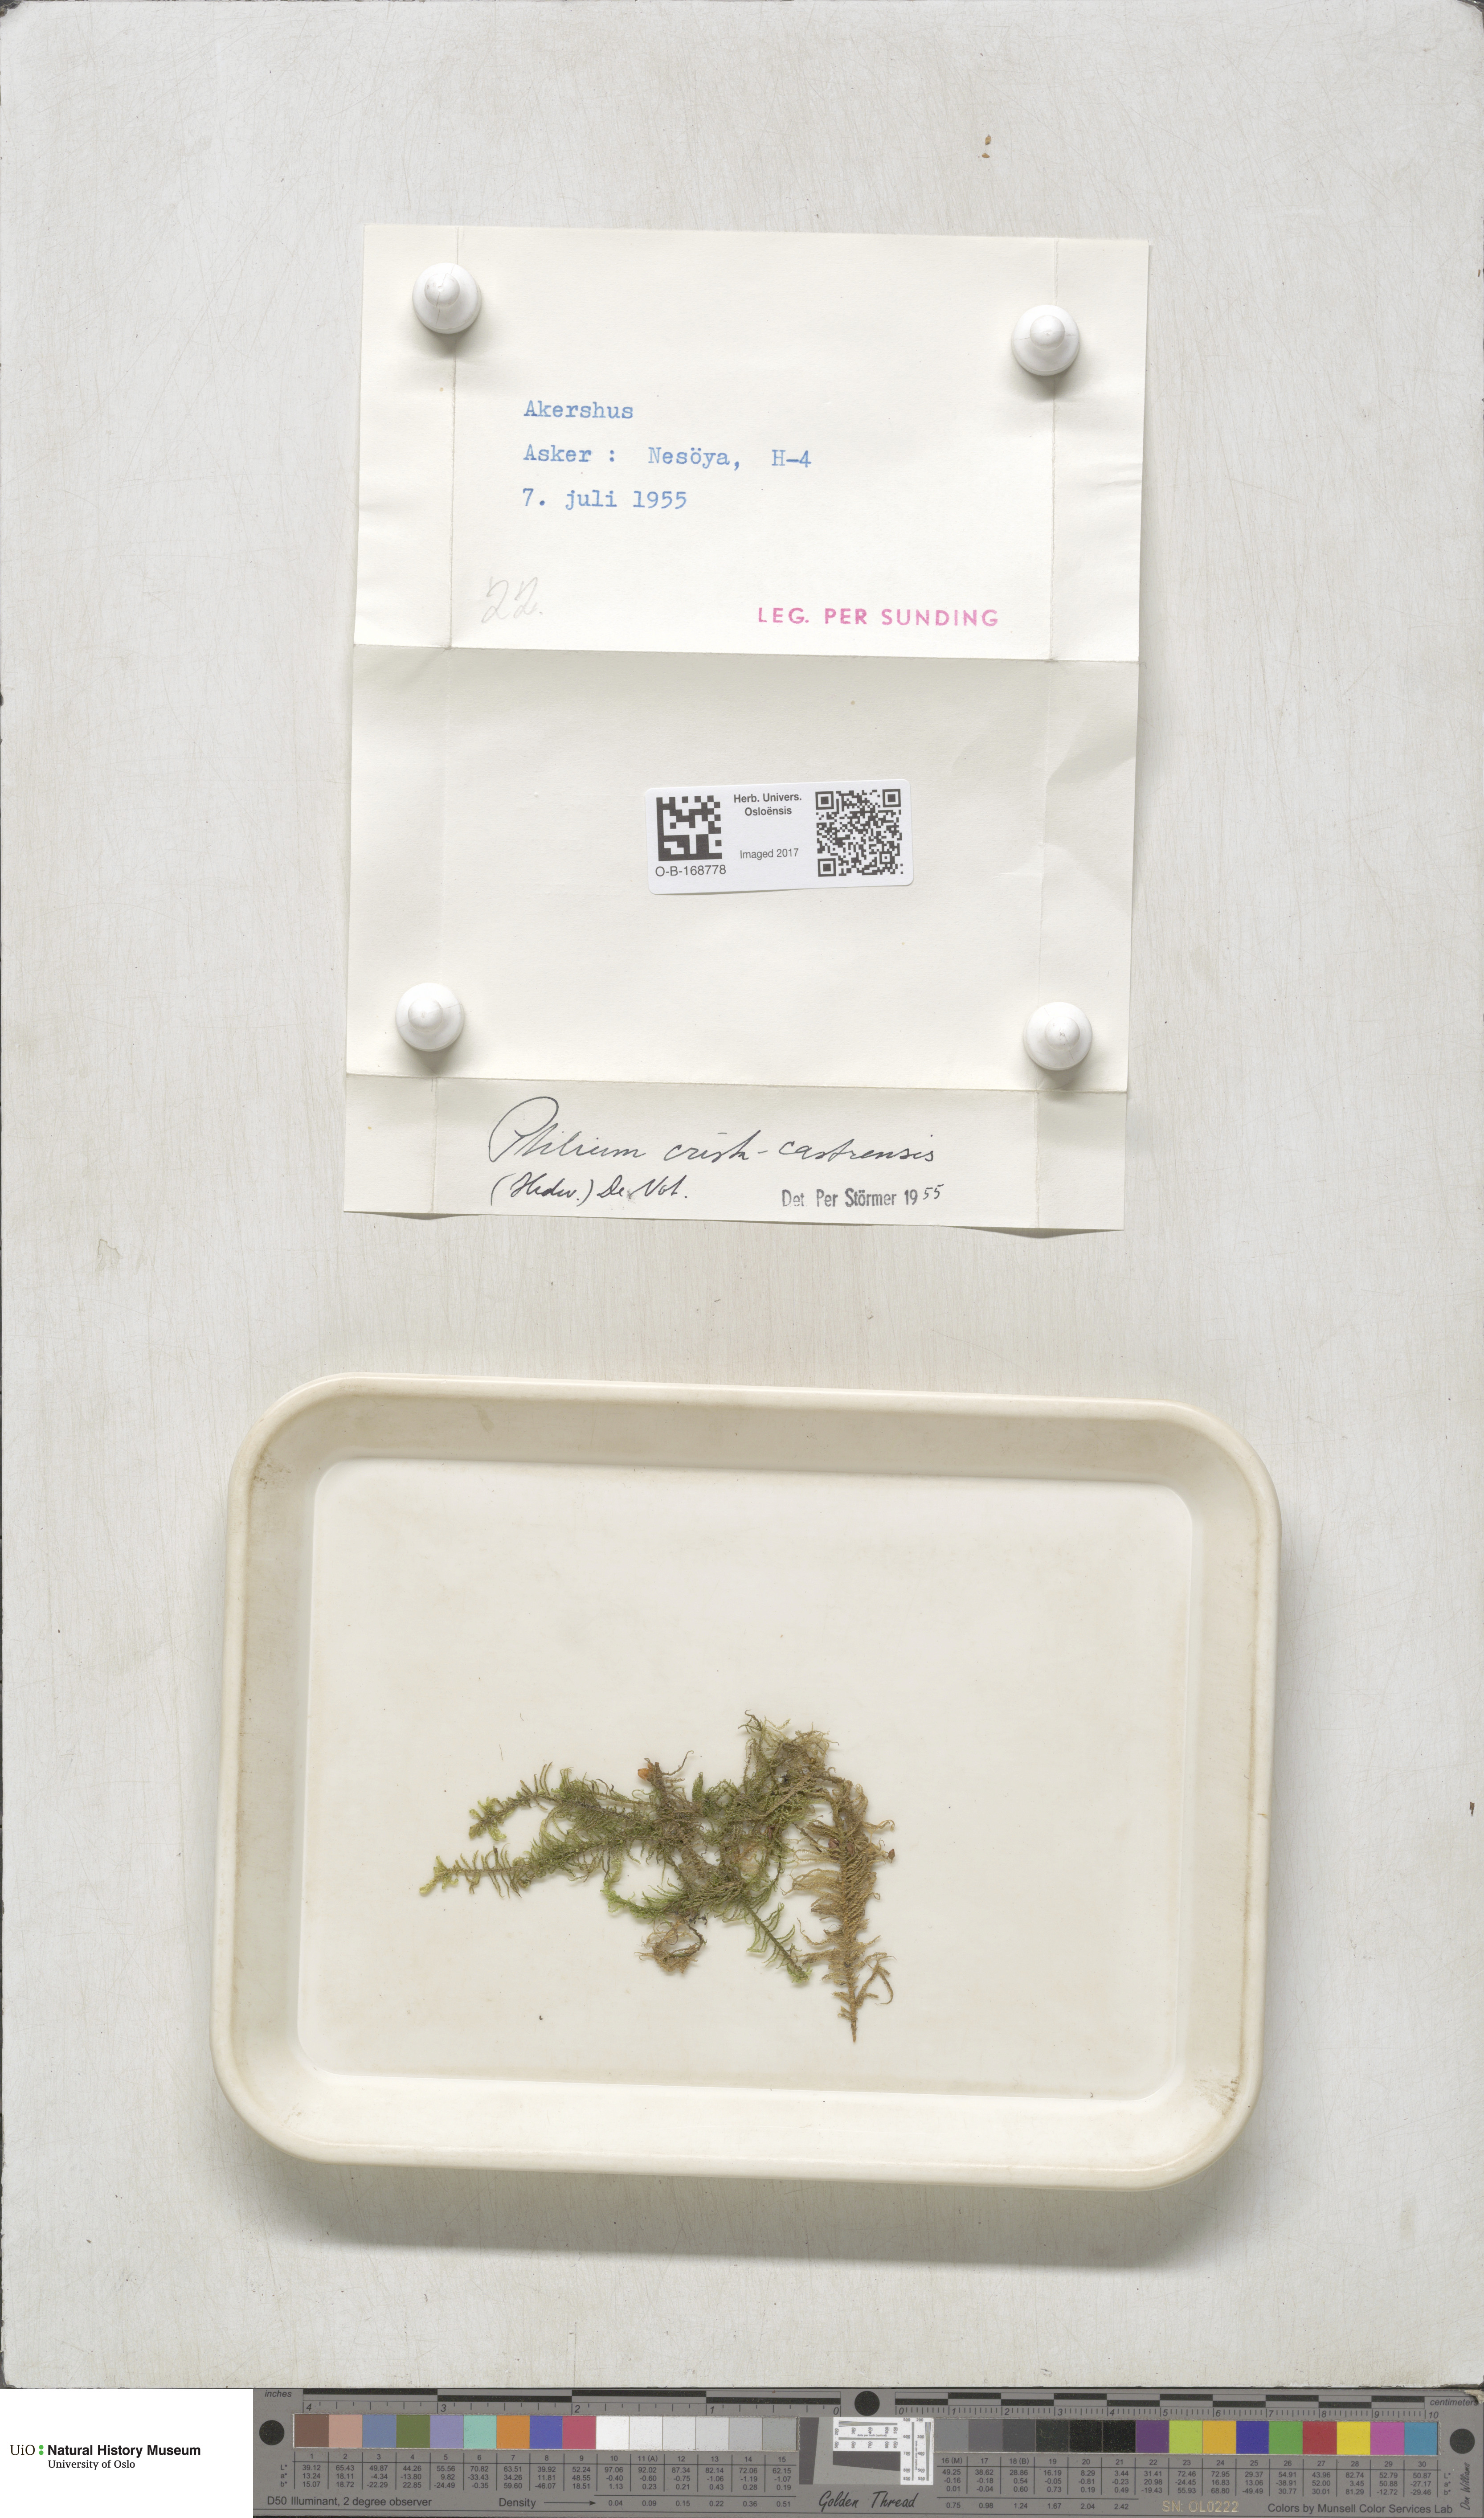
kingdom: Plantae
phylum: Bryophyta
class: Bryopsida
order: Hypnales
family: Pylaisiaceae
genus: Ptilium
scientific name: Ptilium crista-castrensis
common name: Knight's plume moss
